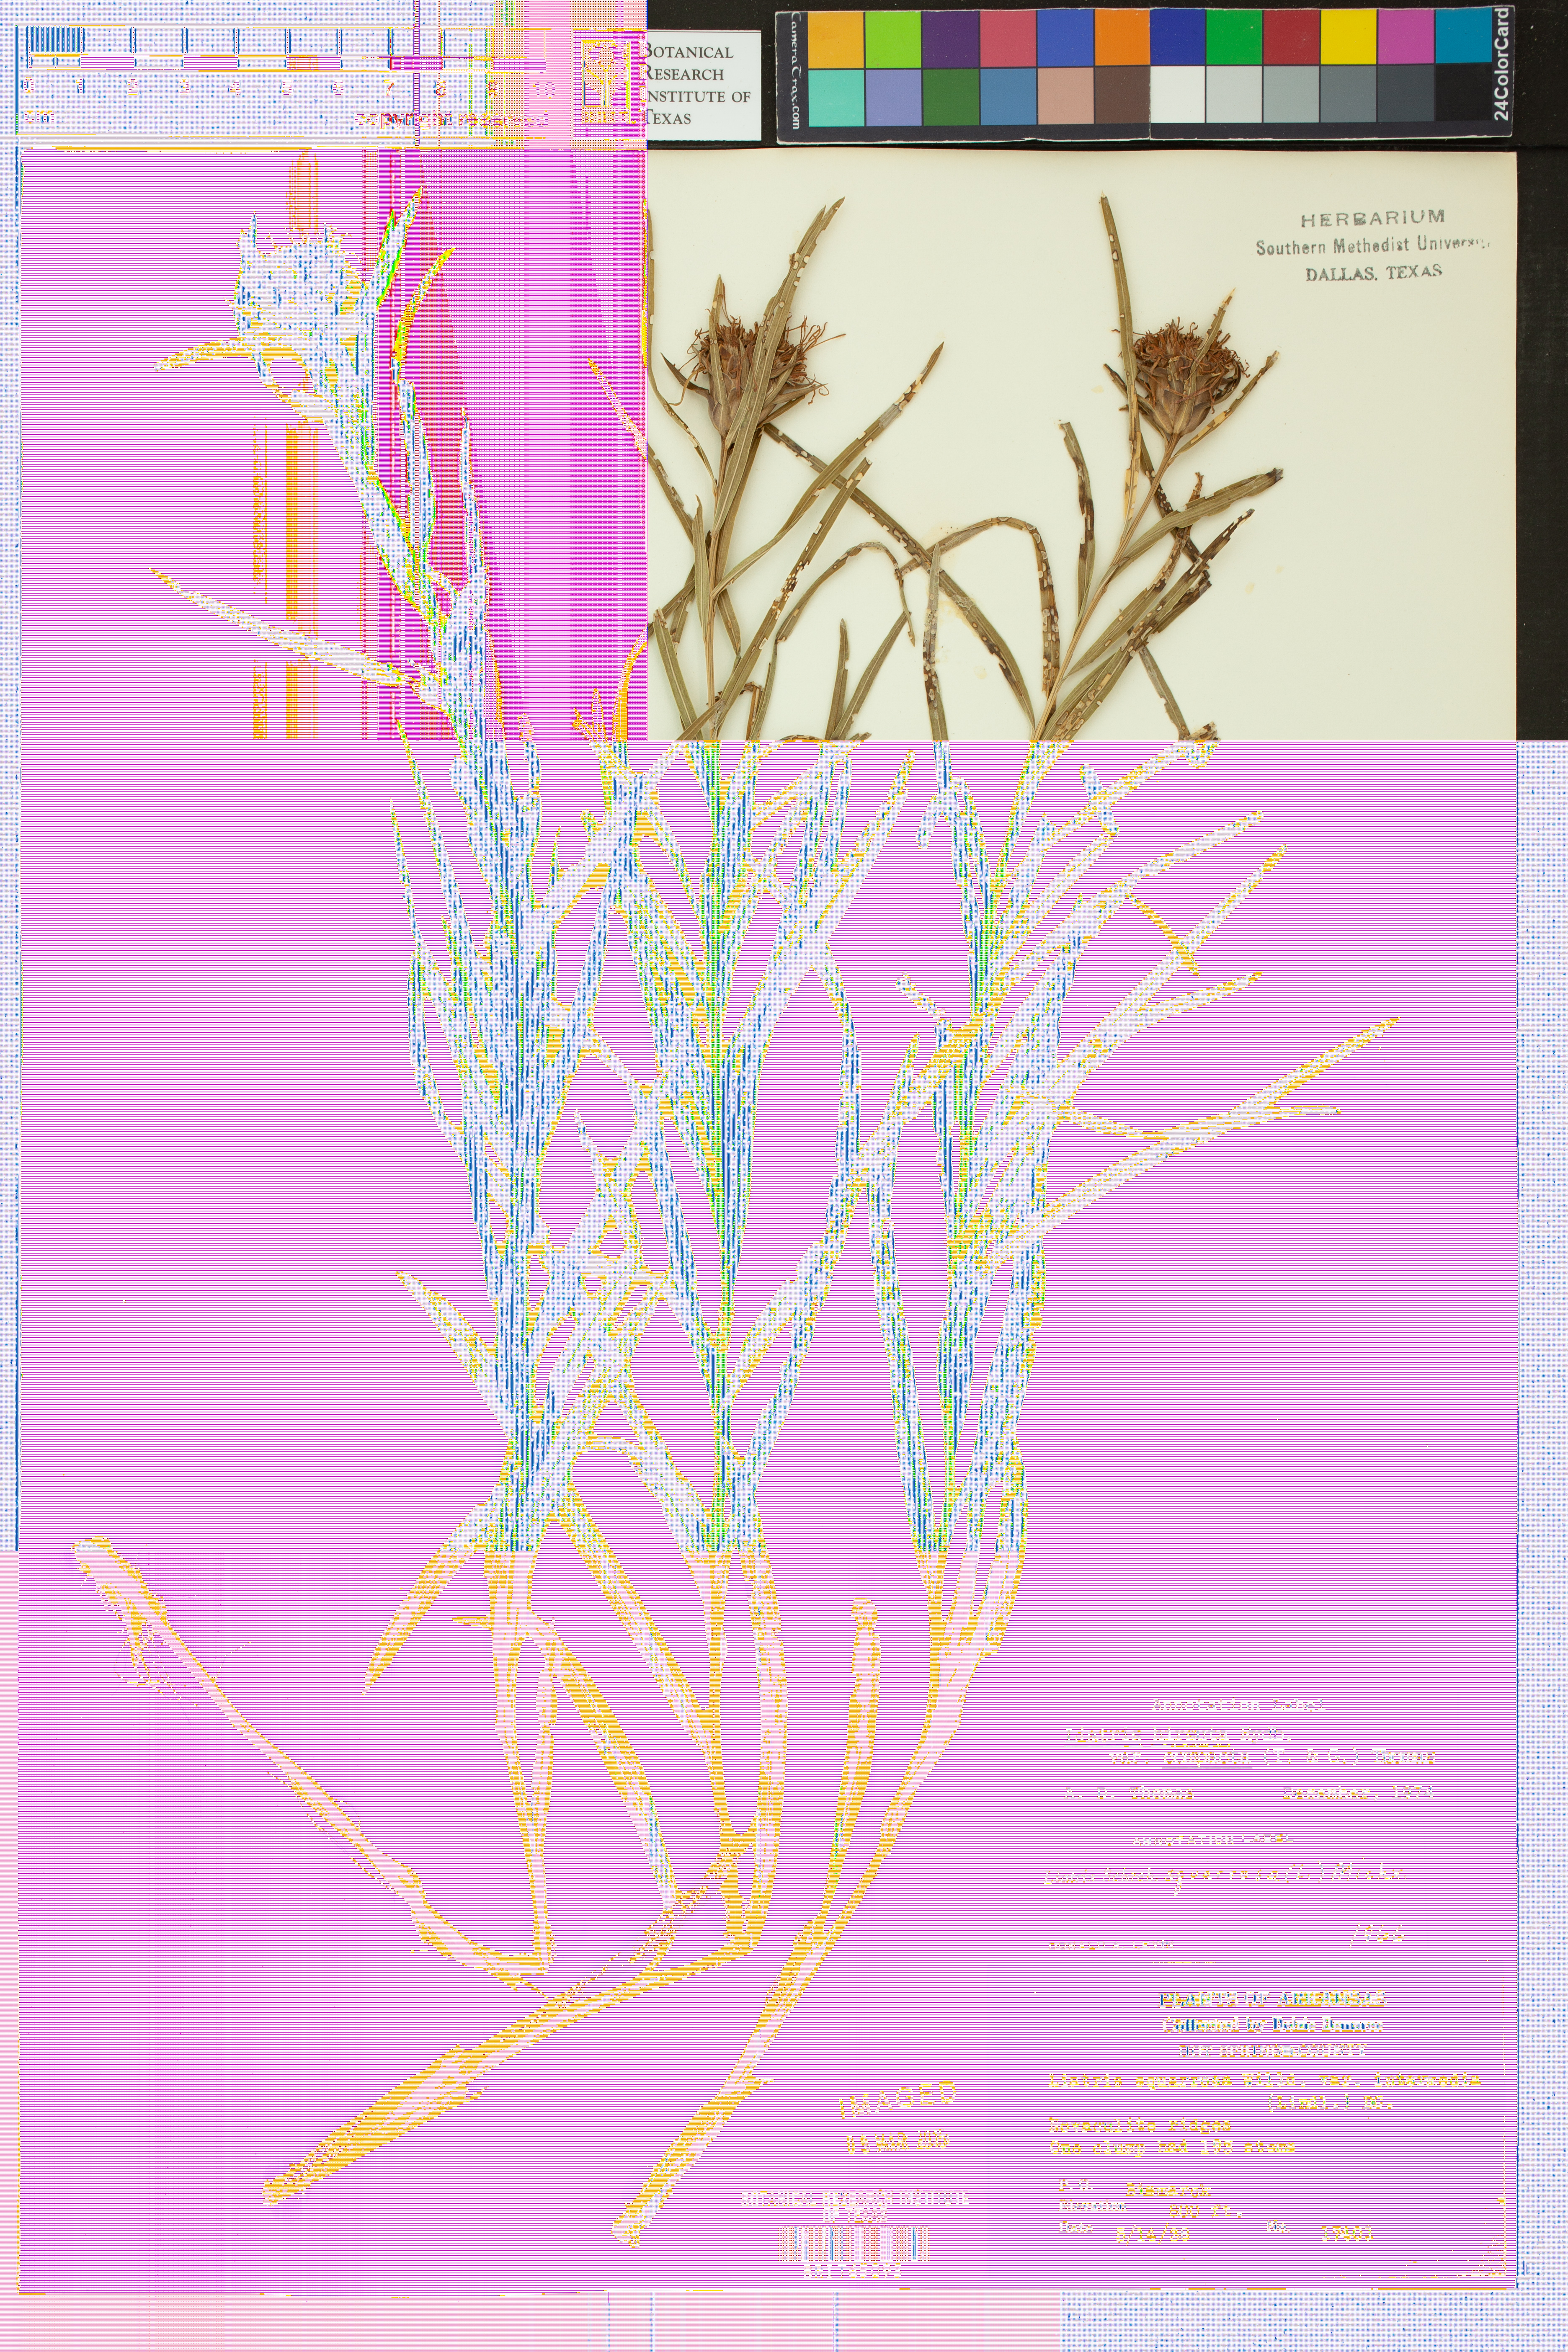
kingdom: Plantae
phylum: Tracheophyta
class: Magnoliopsida
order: Asterales
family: Asteraceae
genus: Liatris
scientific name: Liatris compacta
